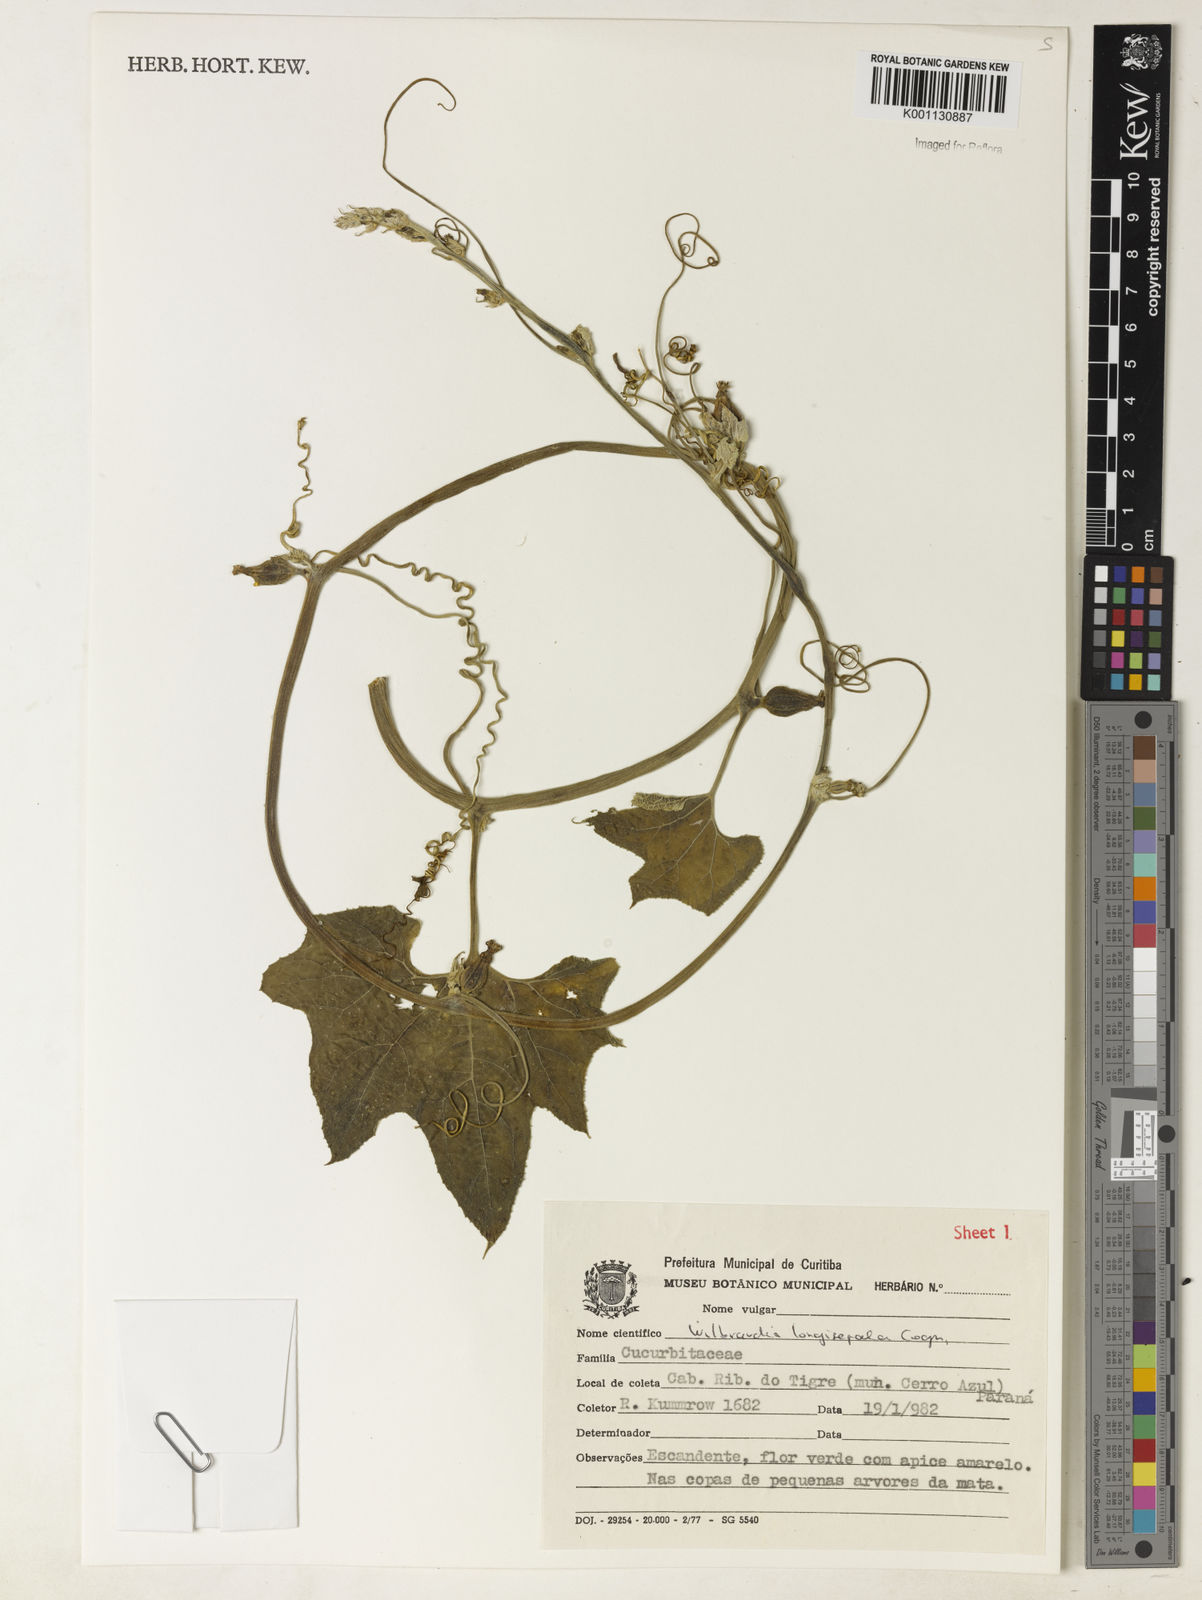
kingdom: Plantae
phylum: Tracheophyta
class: Magnoliopsida
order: Cucurbitales
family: Cucurbitaceae
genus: Wilbrandia
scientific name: Wilbrandia longisepala
